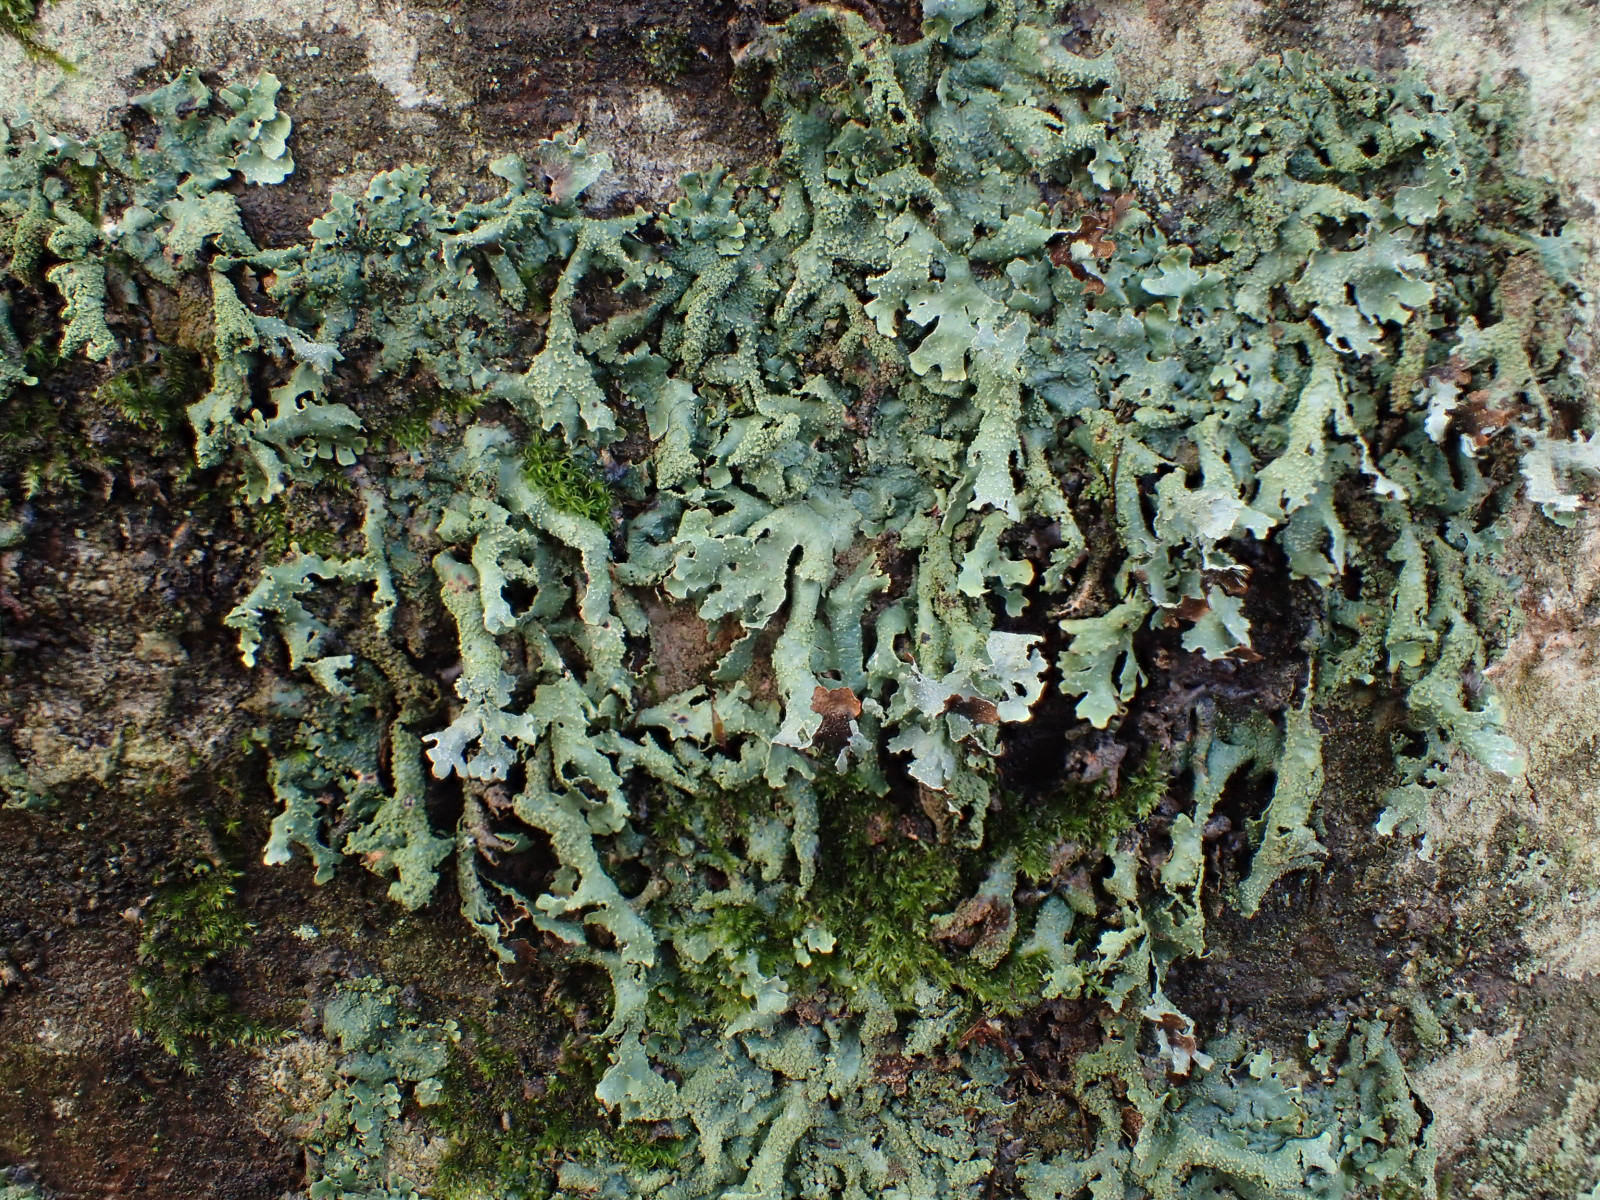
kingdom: Fungi
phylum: Ascomycota
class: Lecanoromycetes
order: Lecanorales
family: Parmeliaceae
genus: Parmelia
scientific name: Parmelia submontana
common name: langlobet skållav
